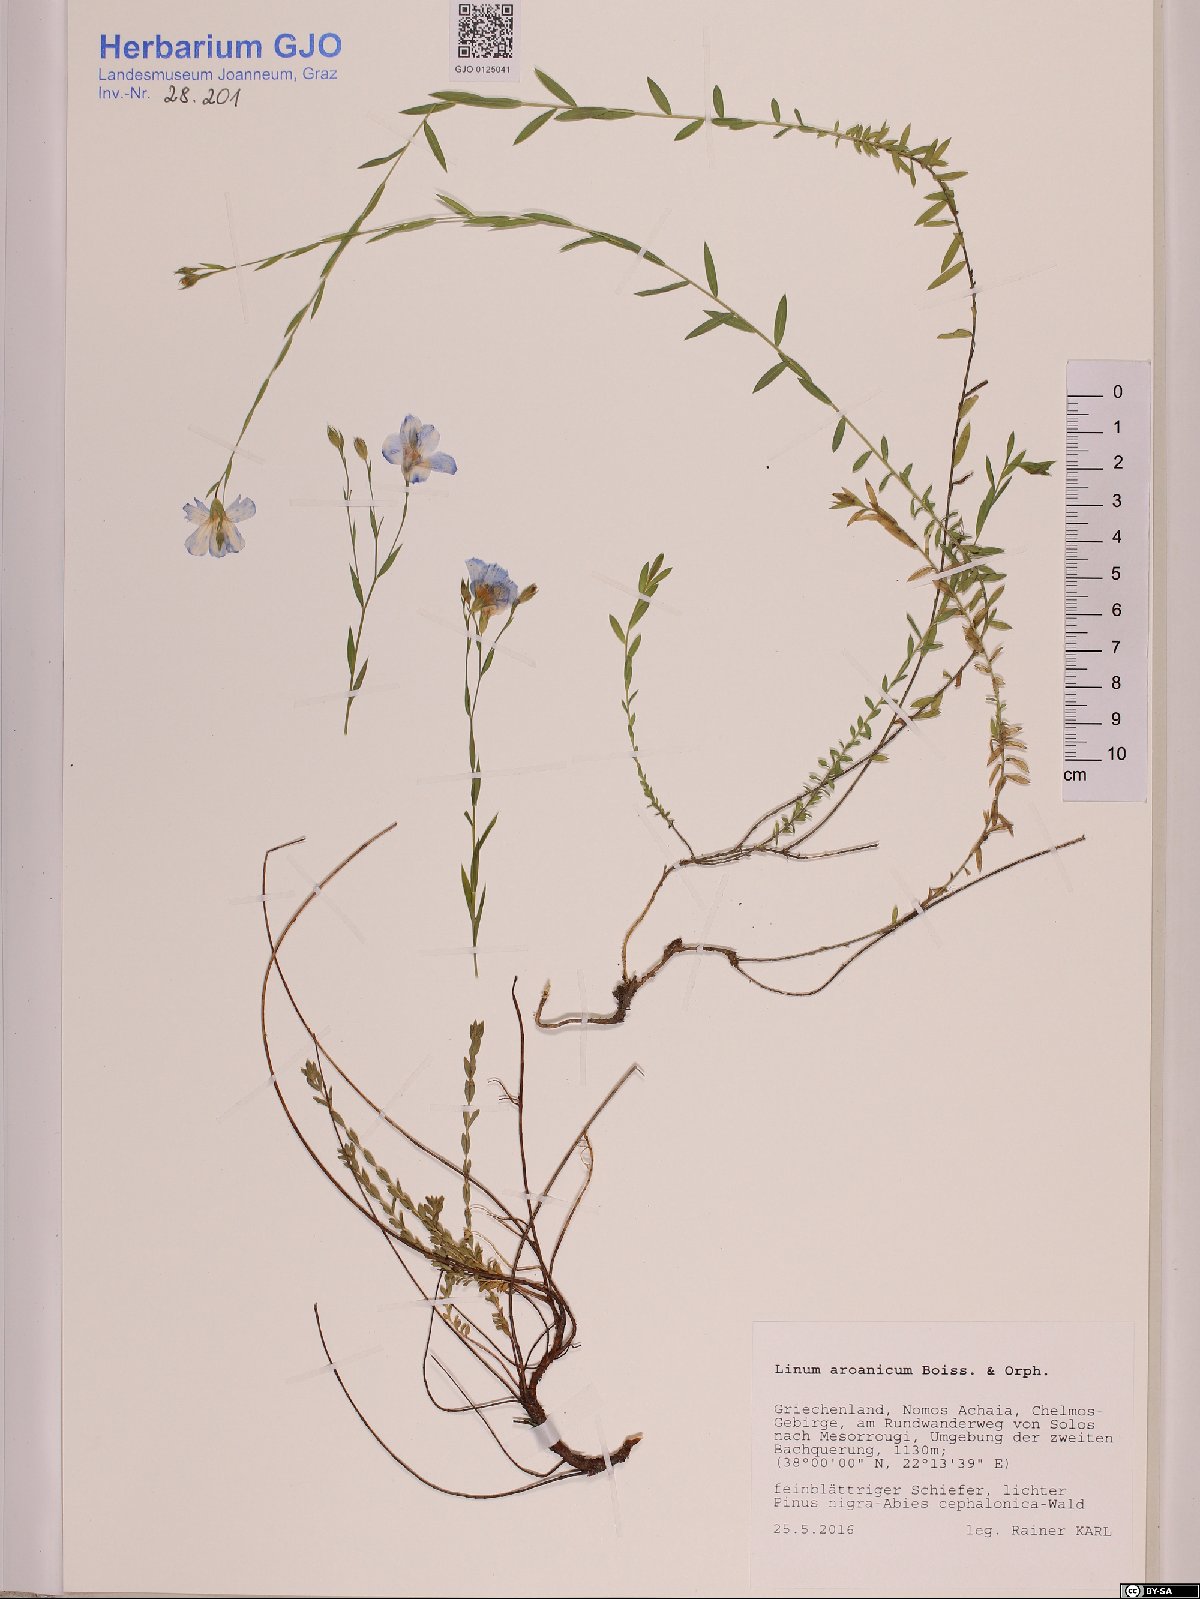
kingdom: Plantae
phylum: Tracheophyta
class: Magnoliopsida
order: Malpighiales
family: Linaceae
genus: Linum
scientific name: Linum aroanium
